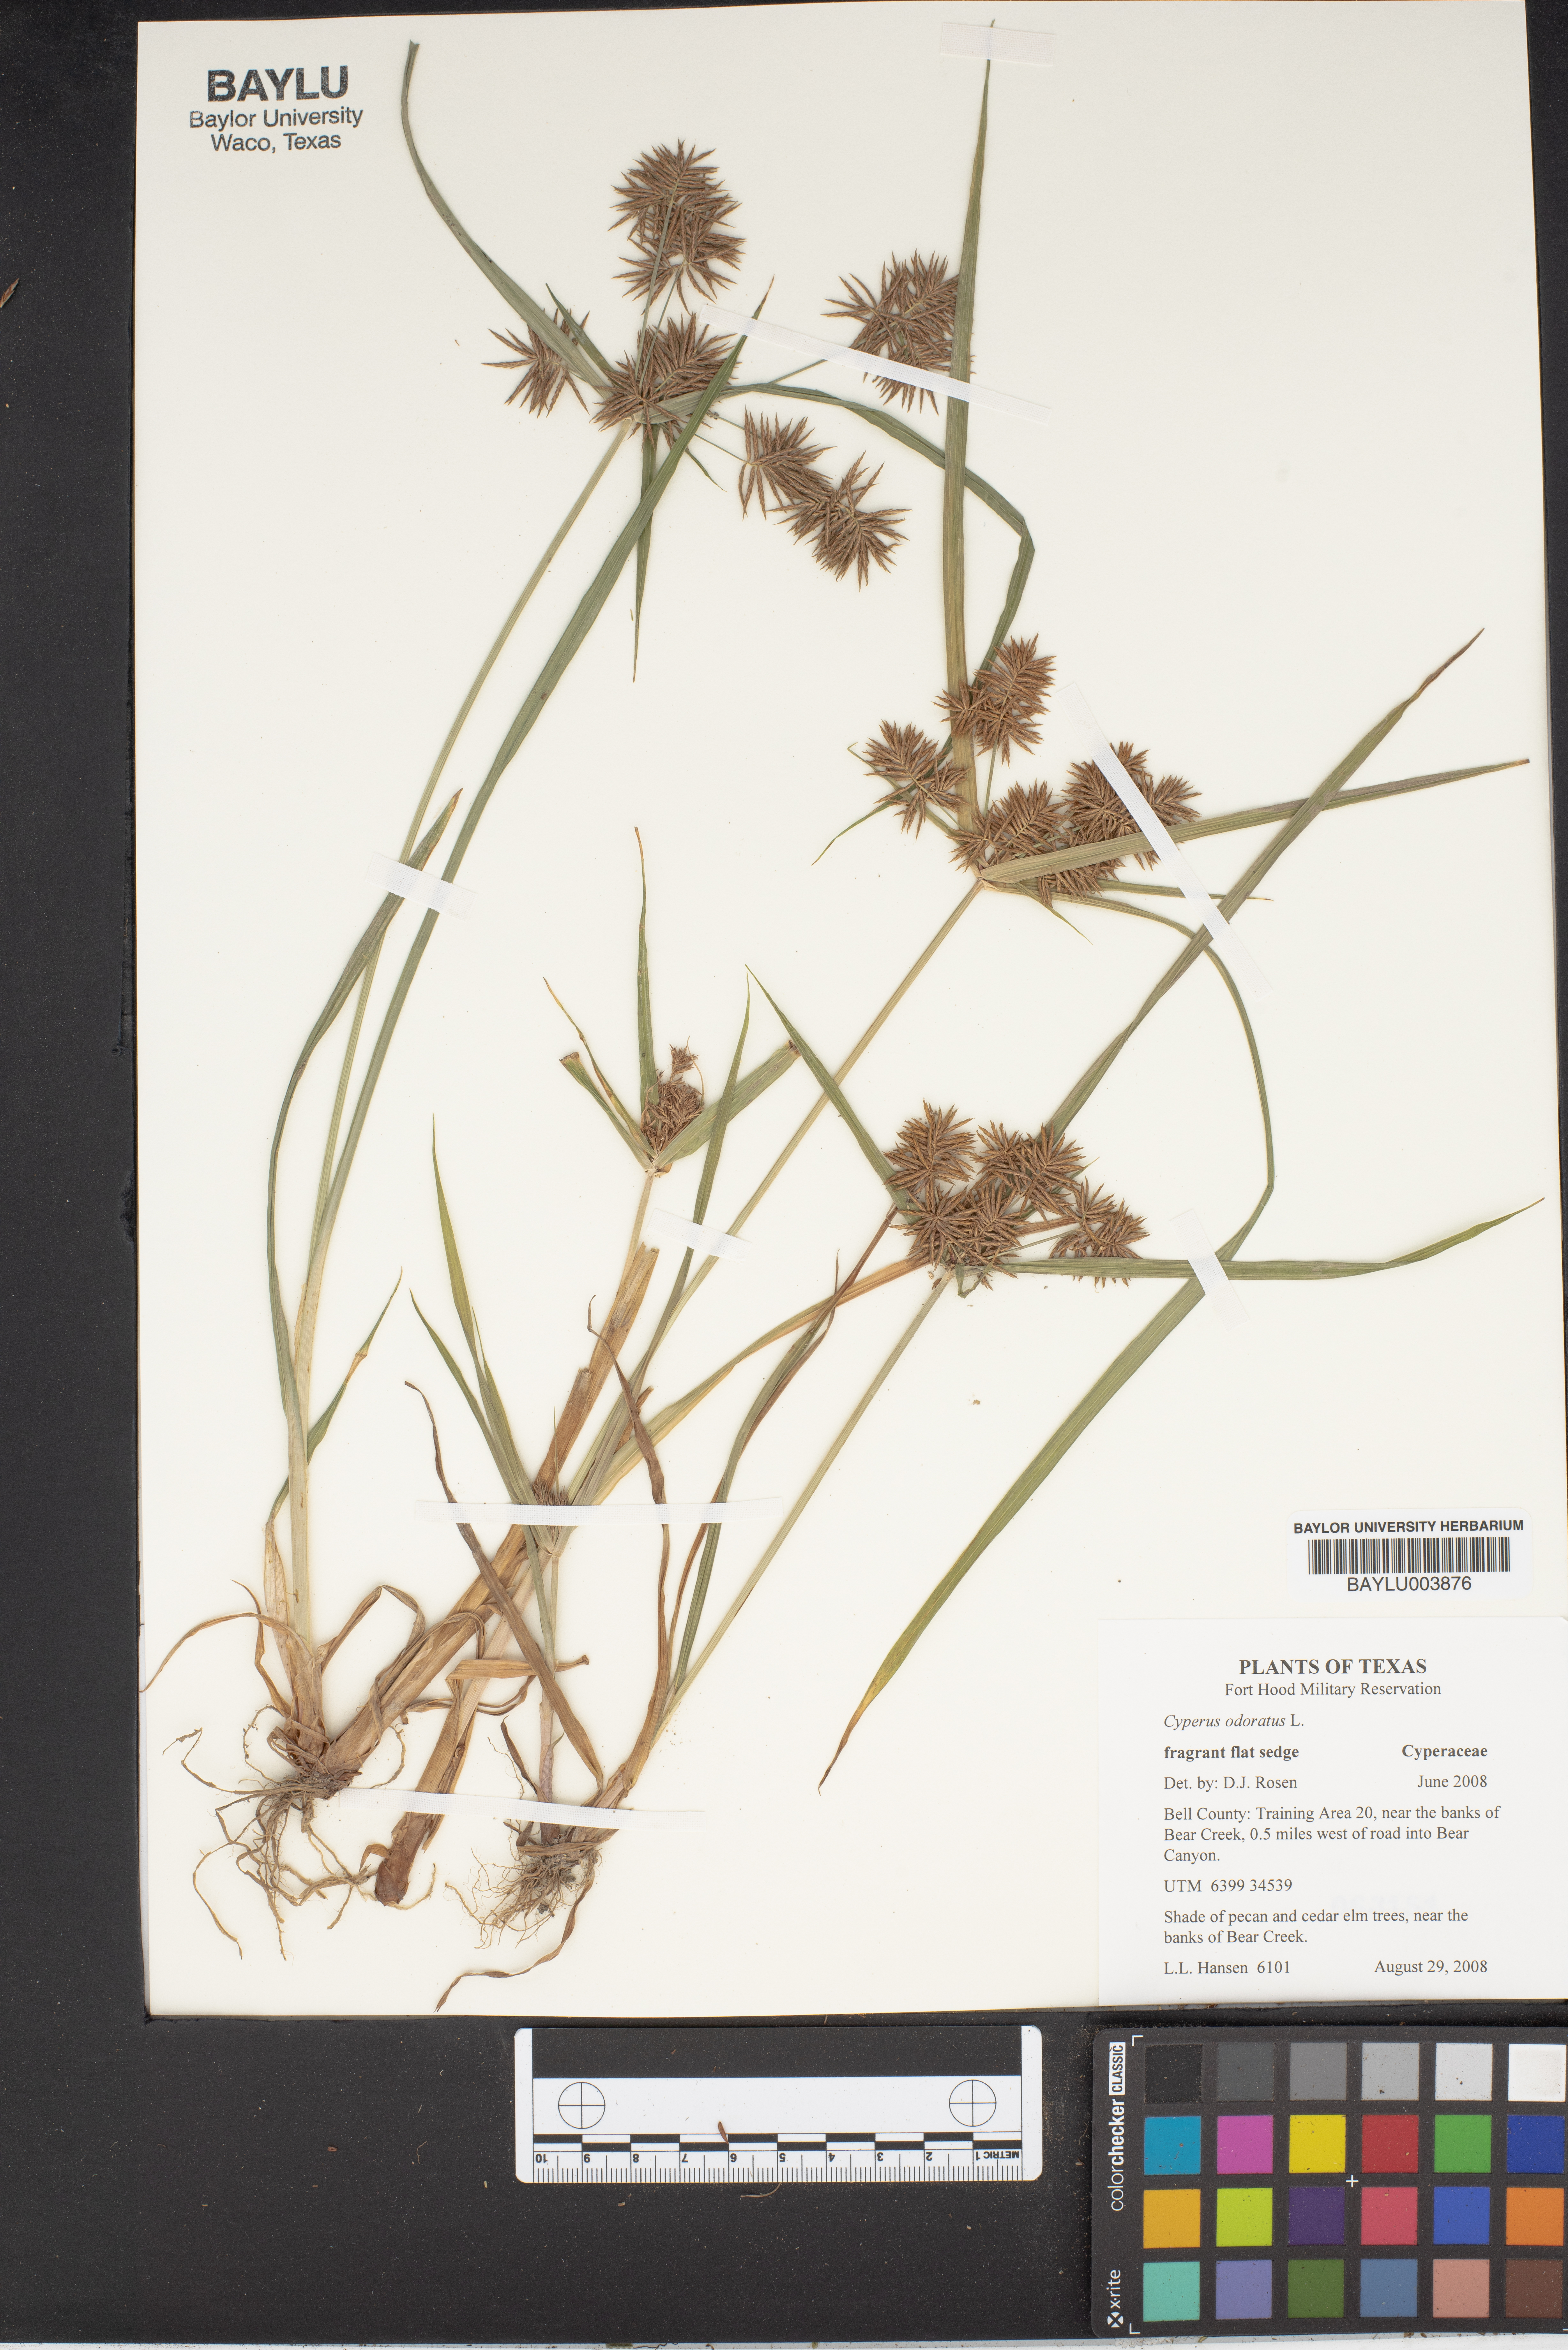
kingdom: Plantae
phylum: Tracheophyta
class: Liliopsida
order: Poales
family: Cyperaceae
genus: Cyperus
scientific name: Cyperus odoratus
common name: Fragrant flatsedge
